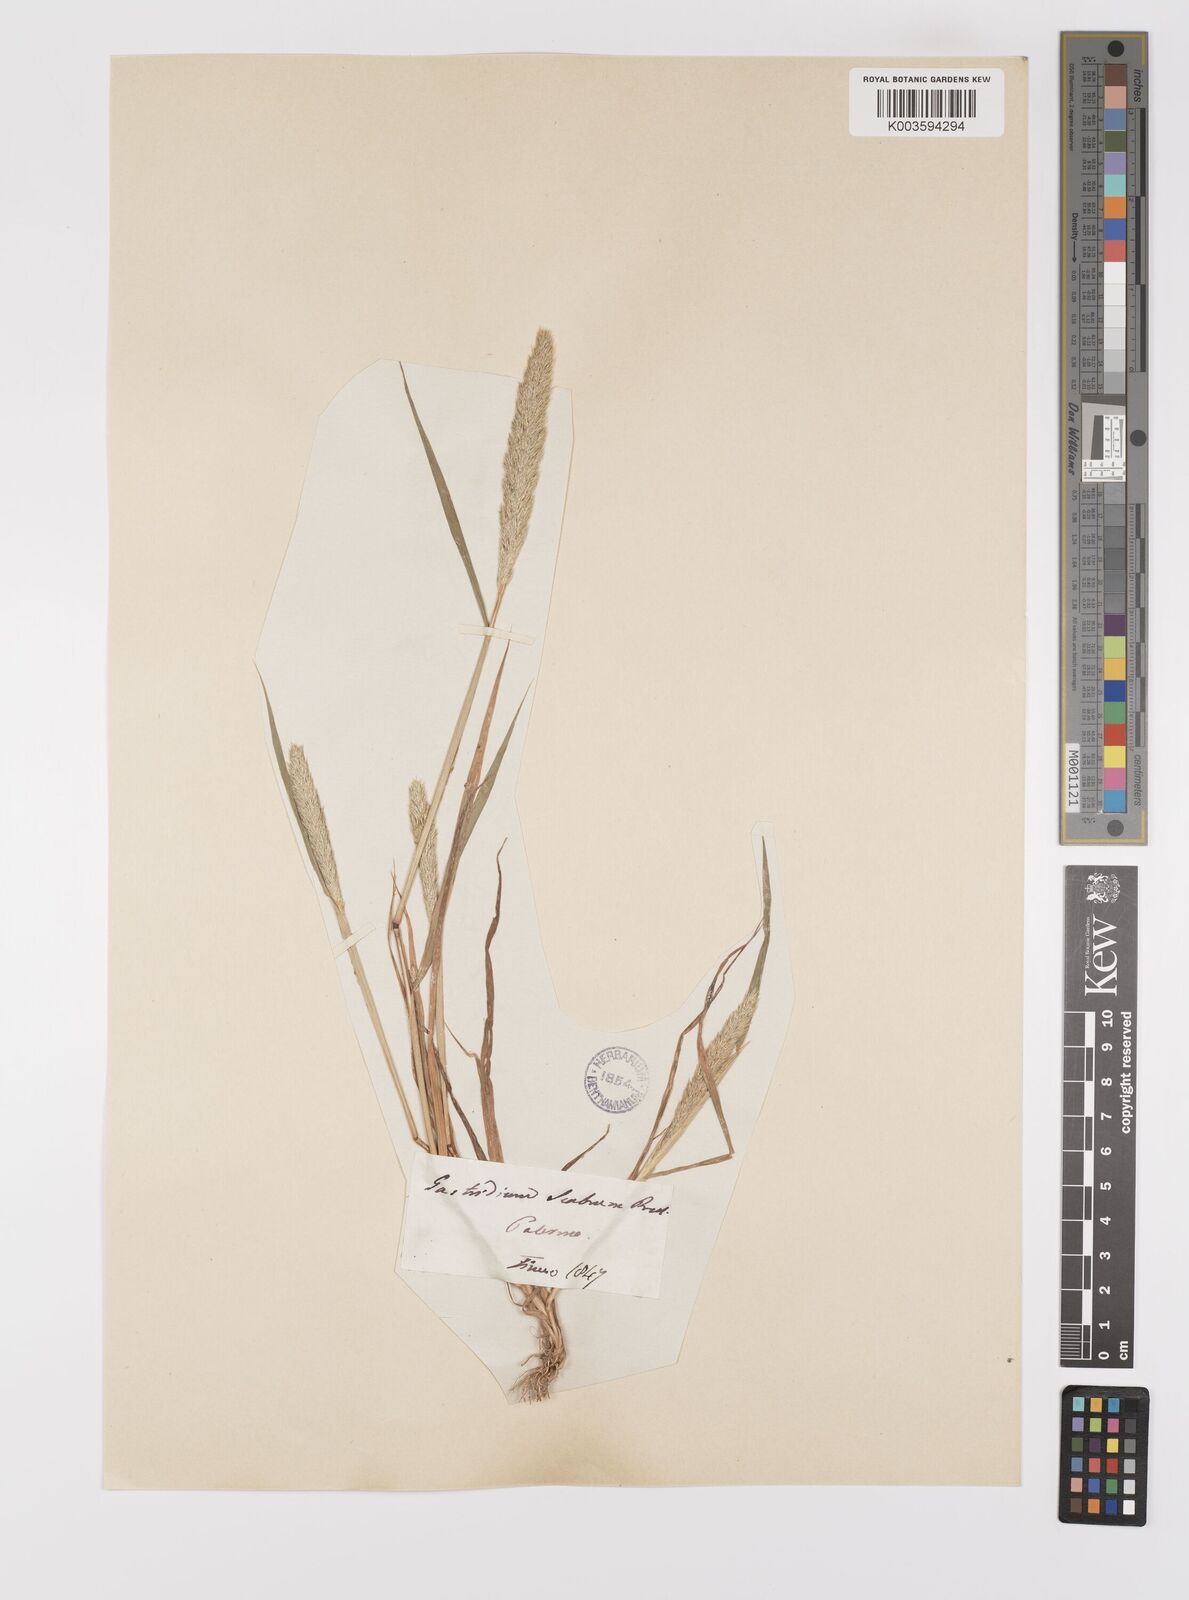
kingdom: Plantae
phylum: Tracheophyta
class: Liliopsida
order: Poales
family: Poaceae
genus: Gastridium
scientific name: Gastridium ventricosum
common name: Nit-grass
